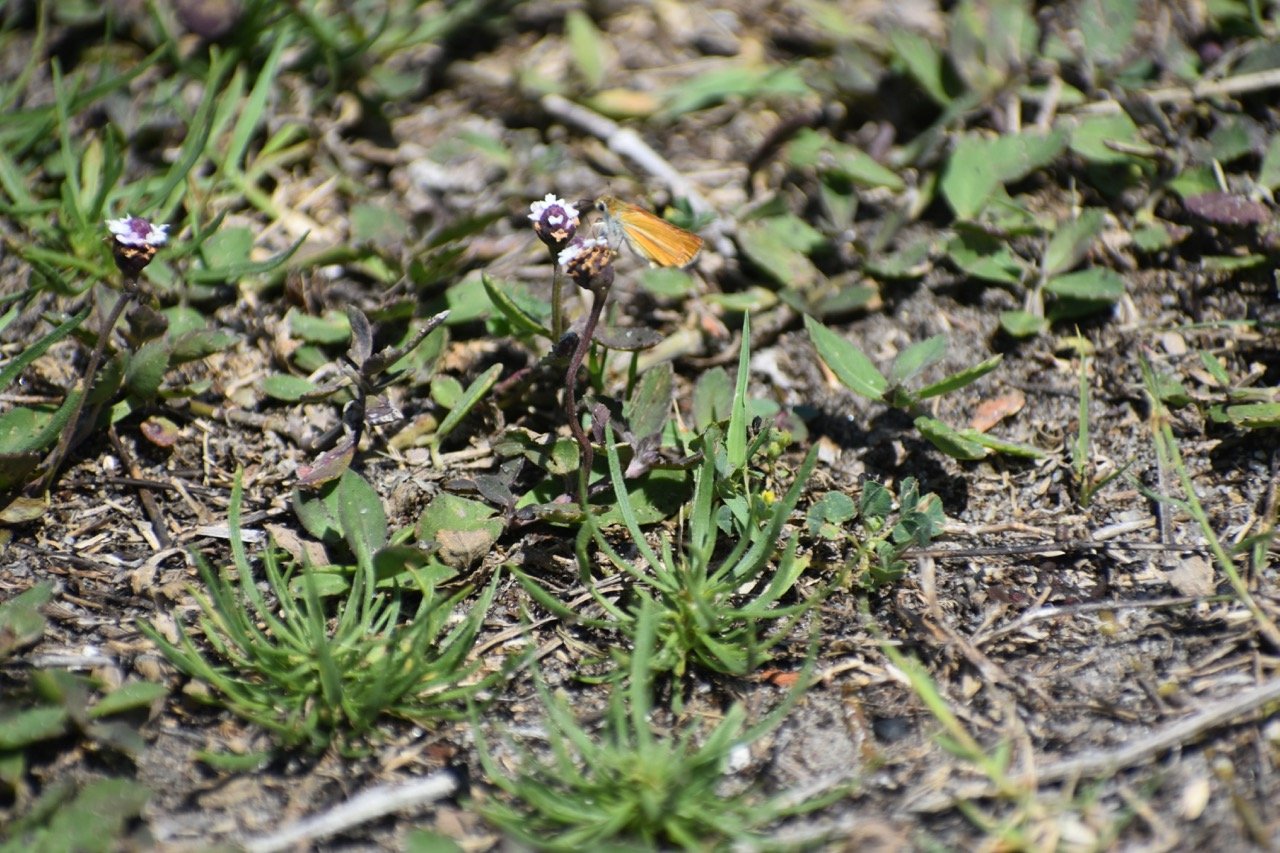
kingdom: Animalia
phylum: Arthropoda
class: Insecta
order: Lepidoptera
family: Hesperiidae
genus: Copaeodes
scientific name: Copaeodes minima
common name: Southern Skipperling
